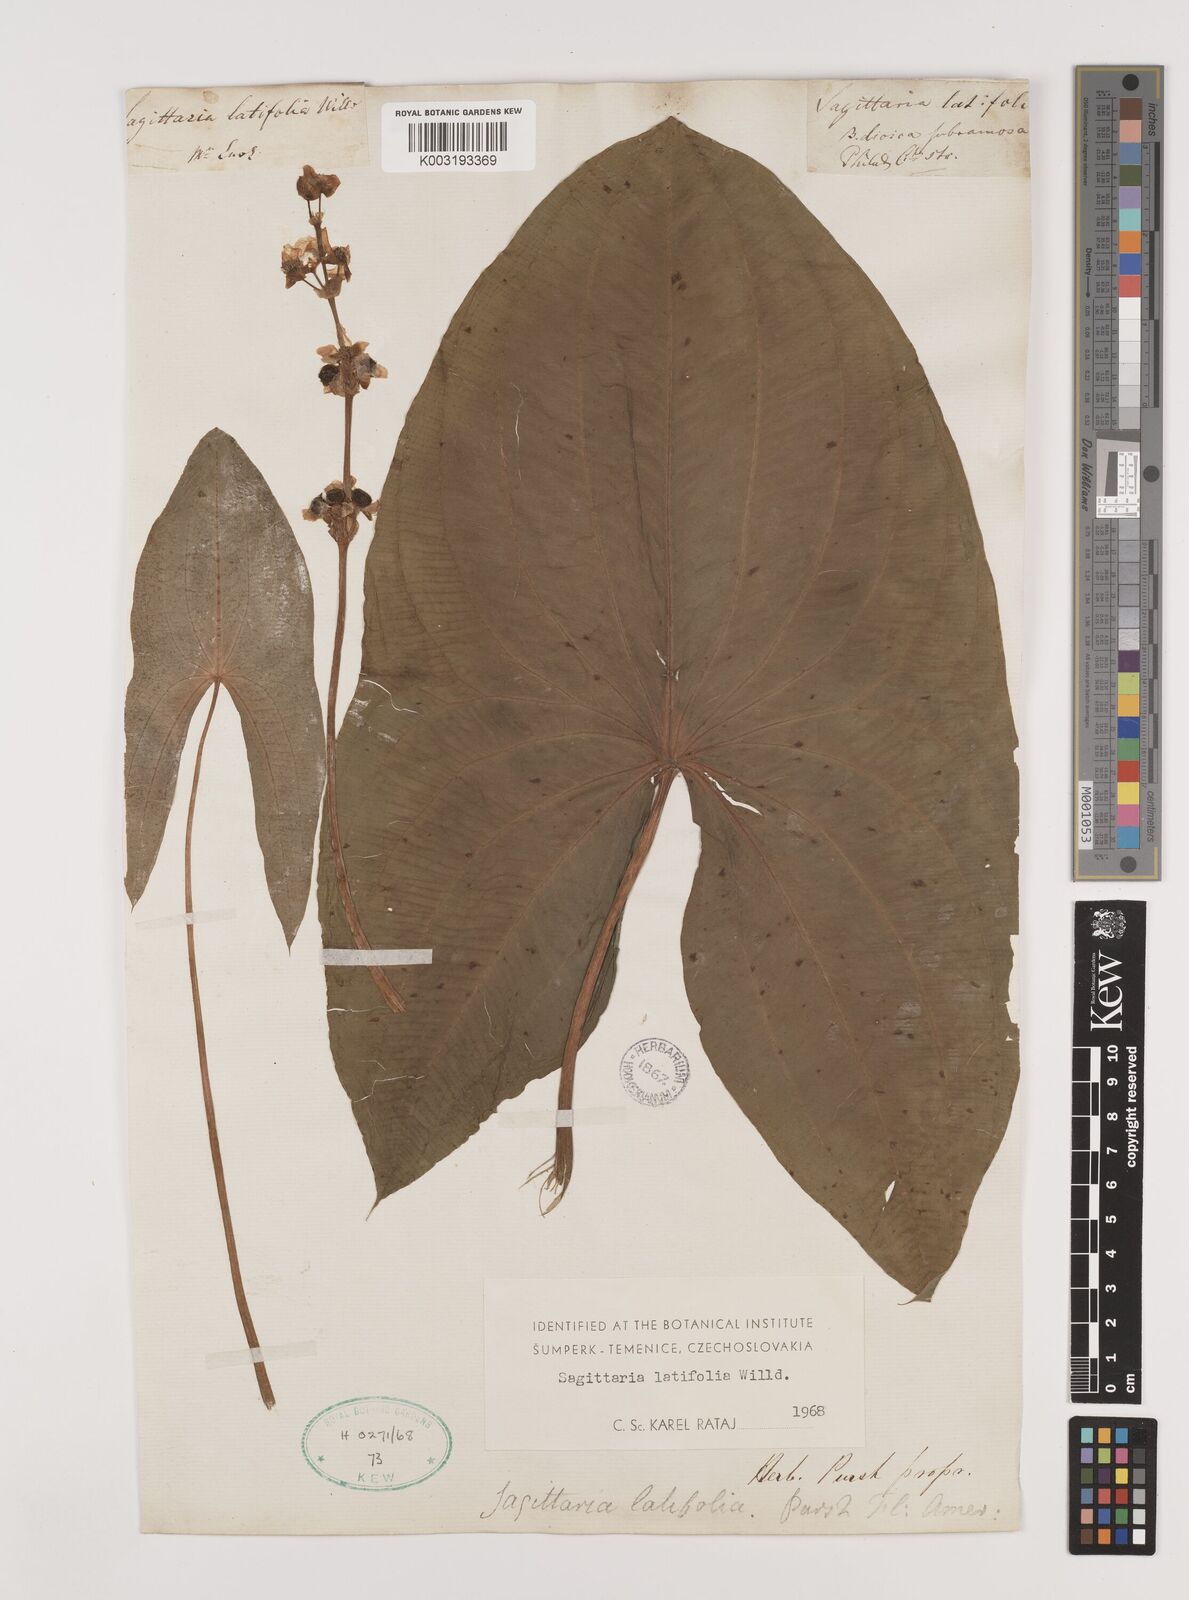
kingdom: Plantae
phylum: Tracheophyta
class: Liliopsida
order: Alismatales
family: Alismataceae
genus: Sagittaria
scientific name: Sagittaria latifolia
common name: Duck-potato
